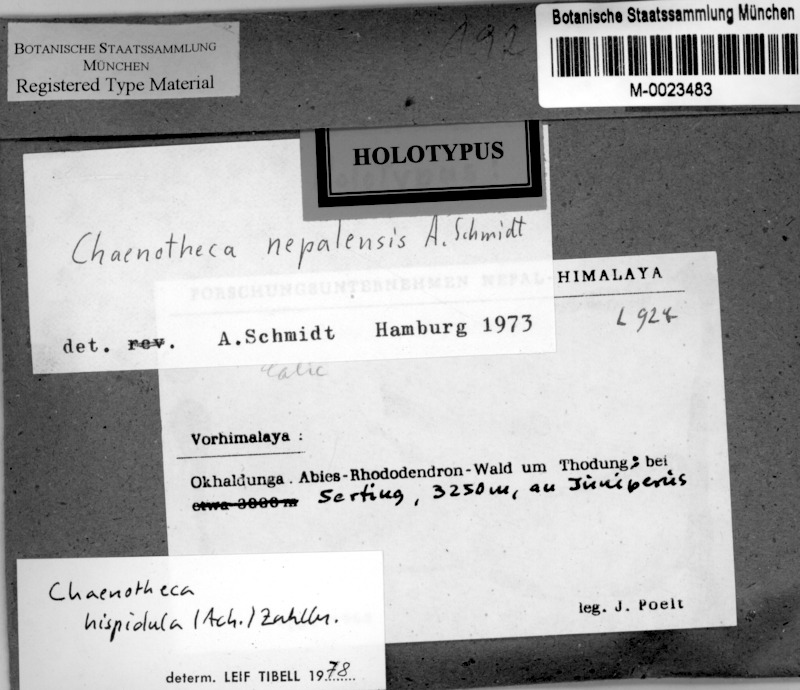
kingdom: Fungi
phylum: Ascomycota
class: Coniocybomycetes
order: Coniocybales
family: Coniocybaceae
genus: Chaenotheca
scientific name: Chaenotheca hispidula
